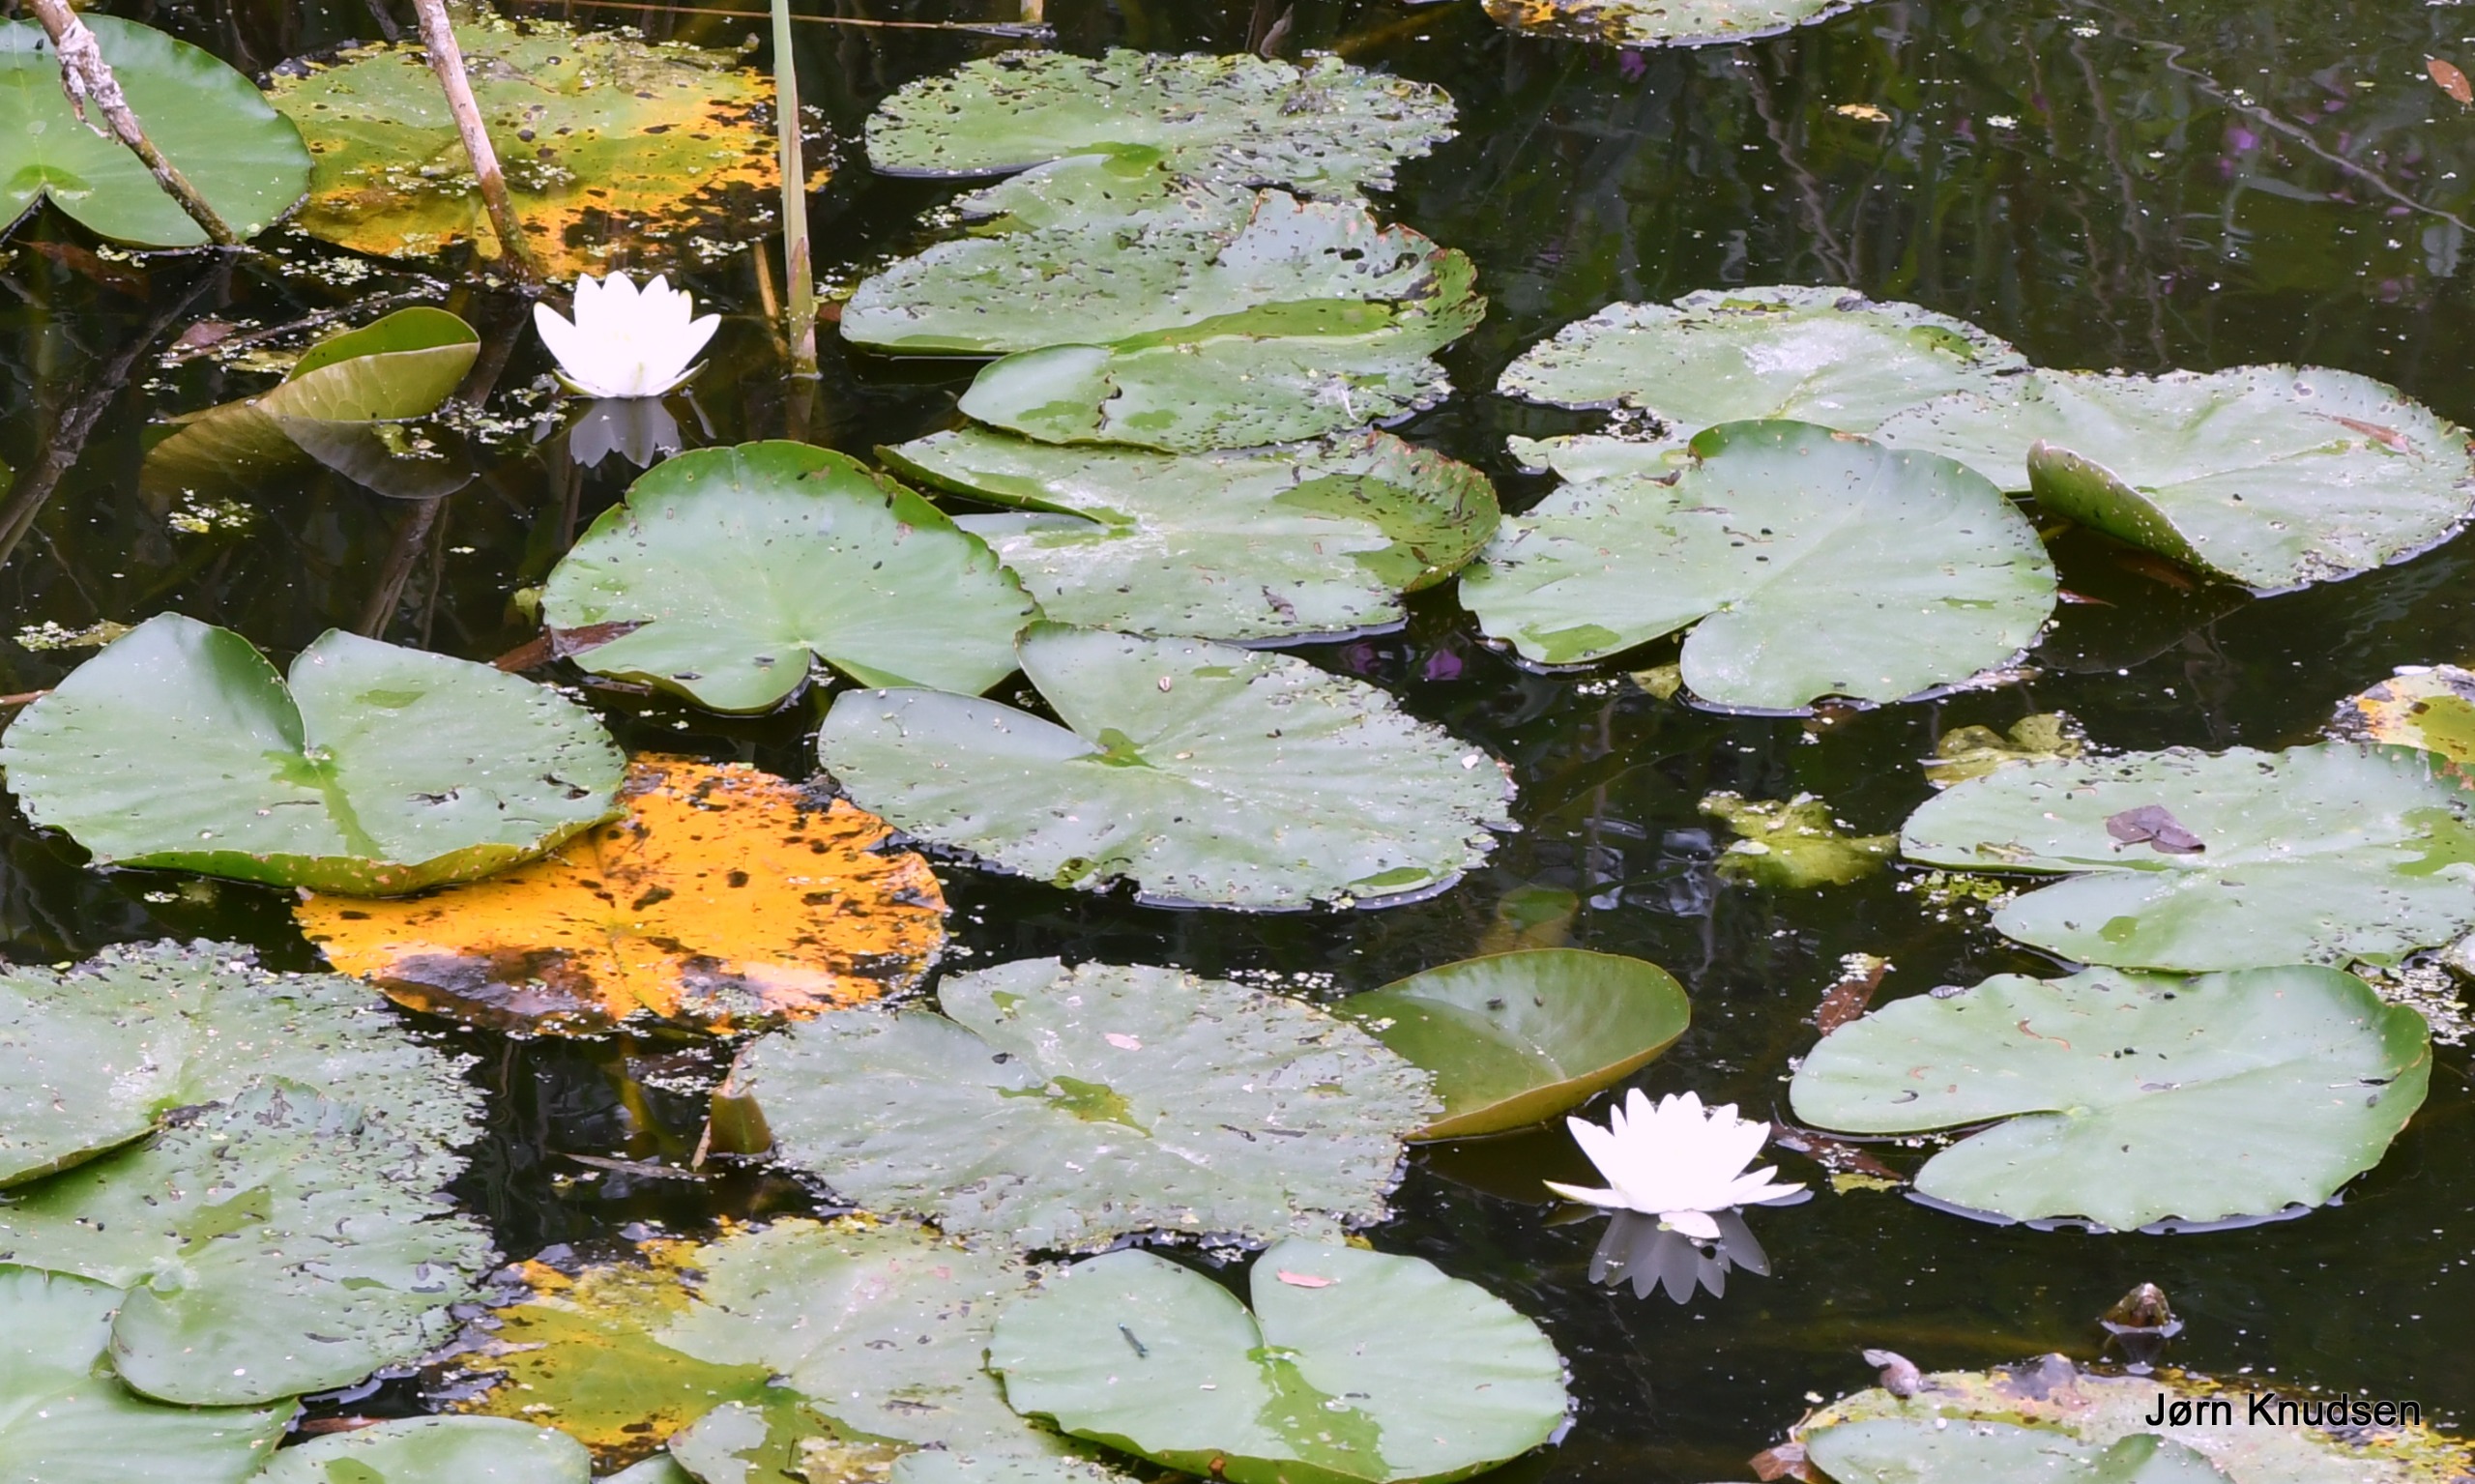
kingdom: Plantae
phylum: Tracheophyta
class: Magnoliopsida
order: Nymphaeales
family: Nymphaeaceae
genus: Nymphaea
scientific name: Nymphaea alba
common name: Hvid åkande
